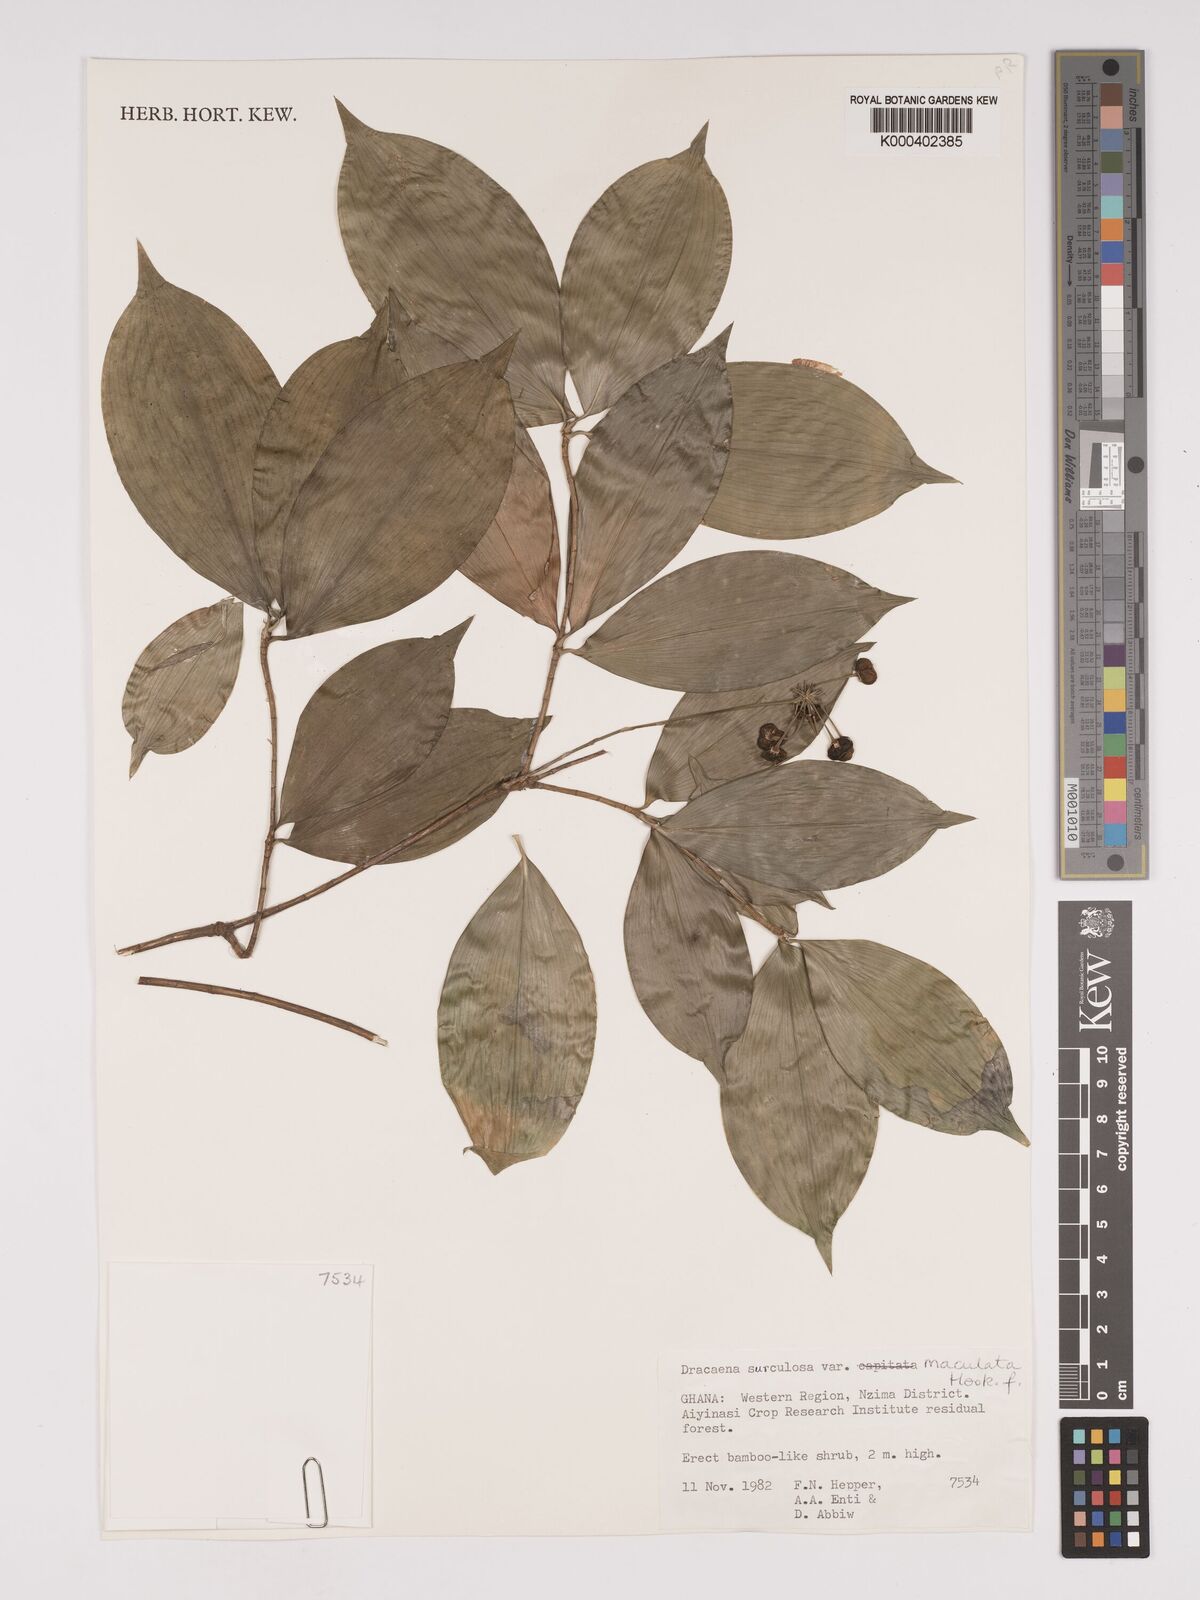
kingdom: Plantae
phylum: Tracheophyta
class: Liliopsida
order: Asparagales
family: Asparagaceae
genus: Dracaena
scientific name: Dracaena surculosa
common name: Spotted dracaena
